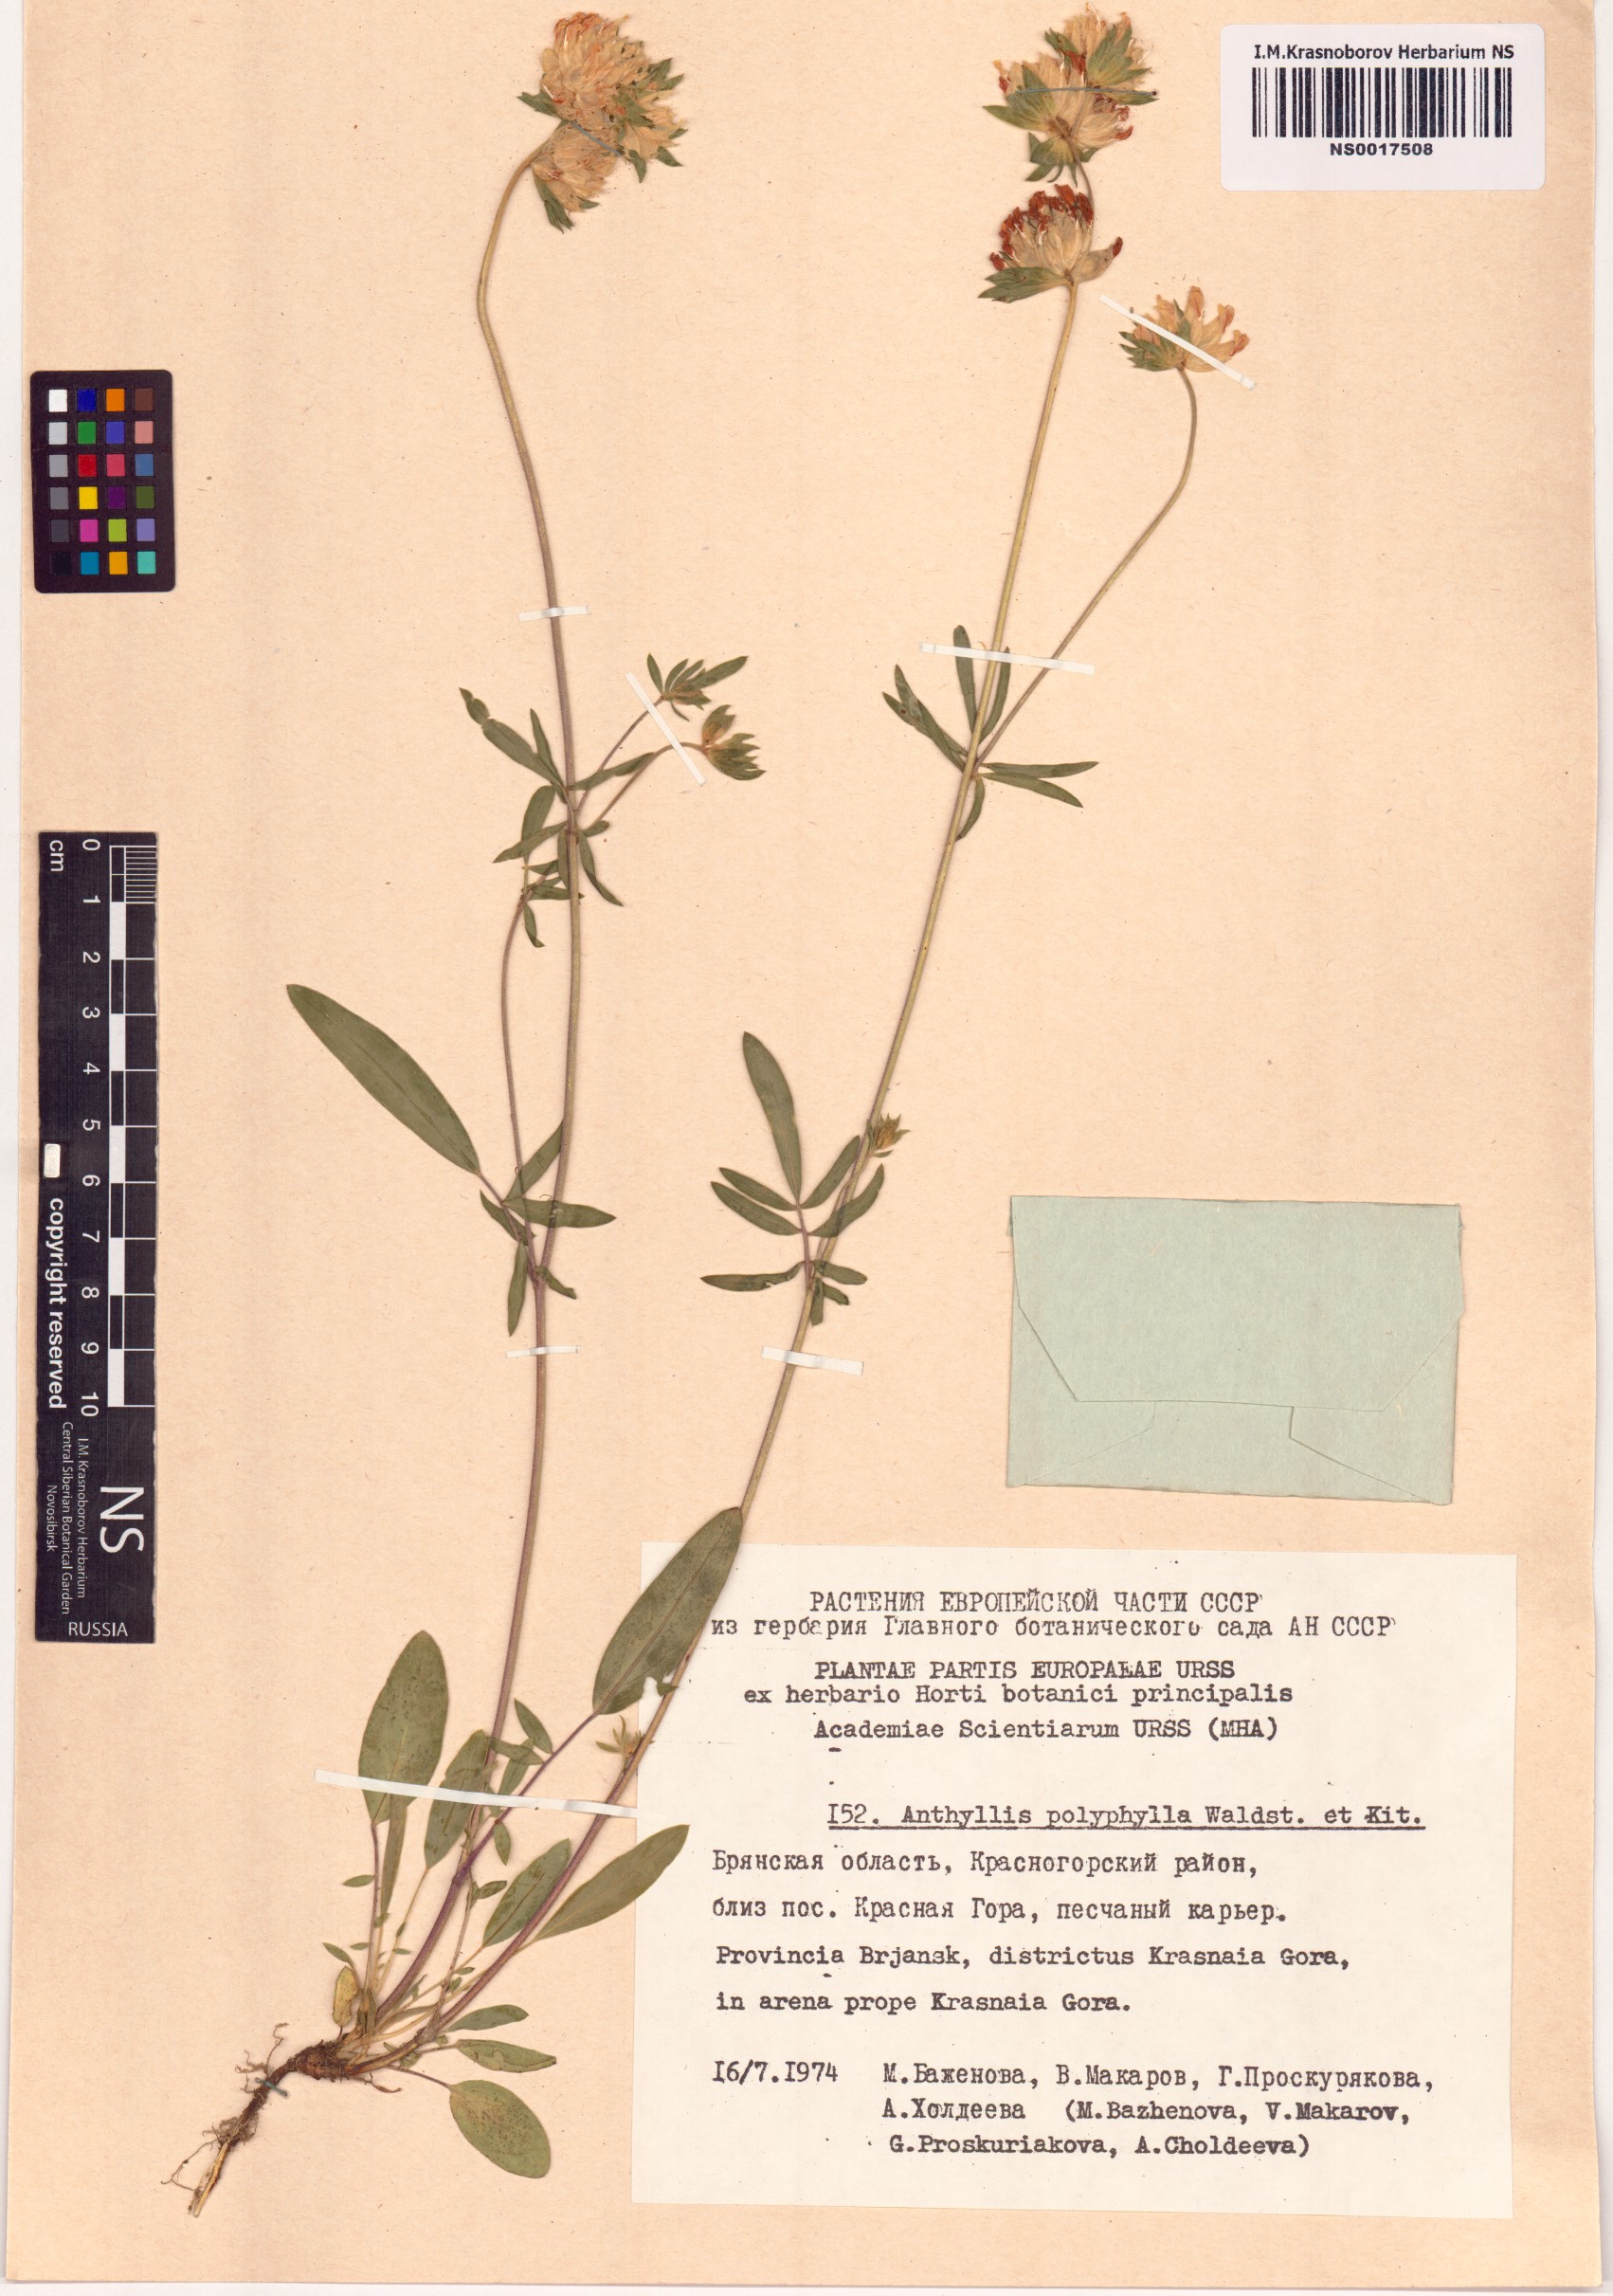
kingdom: Plantae
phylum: Tracheophyta
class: Magnoliopsida
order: Fabales
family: Fabaceae
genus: Anthyllis
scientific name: Anthyllis vulneraria
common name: Kidney vetch
